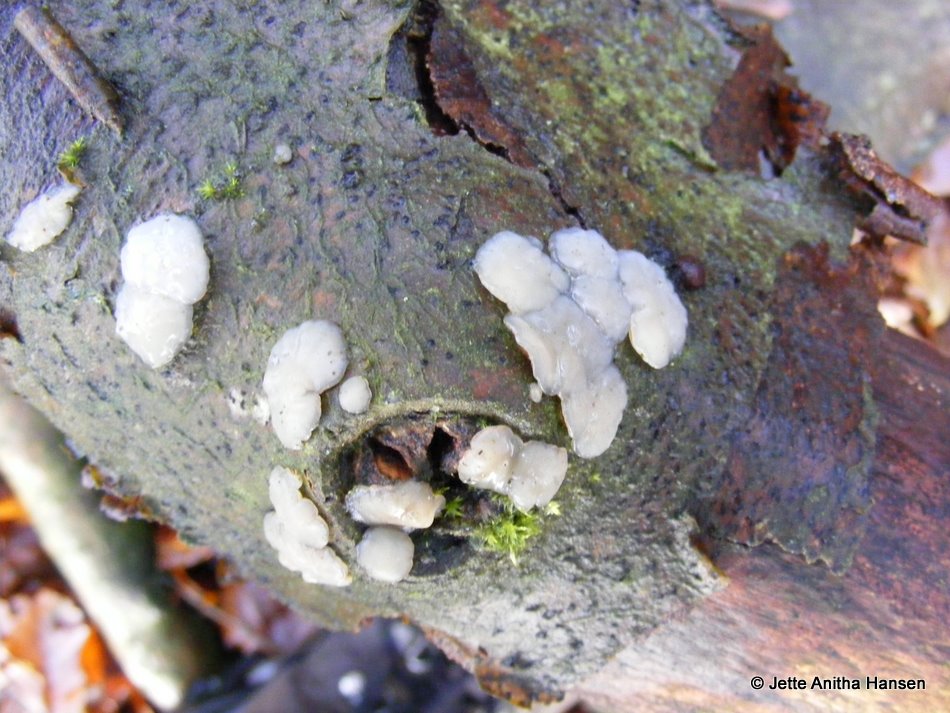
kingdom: Fungi
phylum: Basidiomycota
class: Agaricomycetes
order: Auriculariales
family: Auriculariaceae
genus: Exidia
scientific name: Exidia thuretiana
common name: hvidlig bævretop
